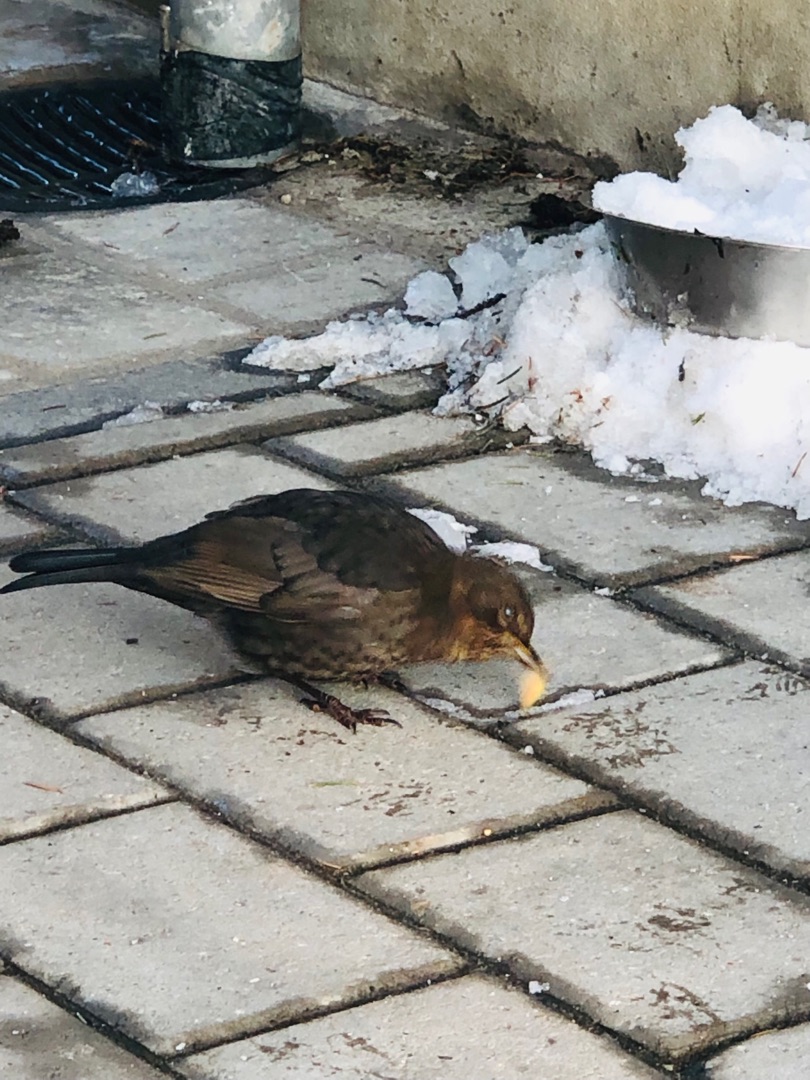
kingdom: Animalia
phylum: Chordata
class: Aves
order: Passeriformes
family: Turdidae
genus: Turdus
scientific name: Turdus merula
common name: Solsort
